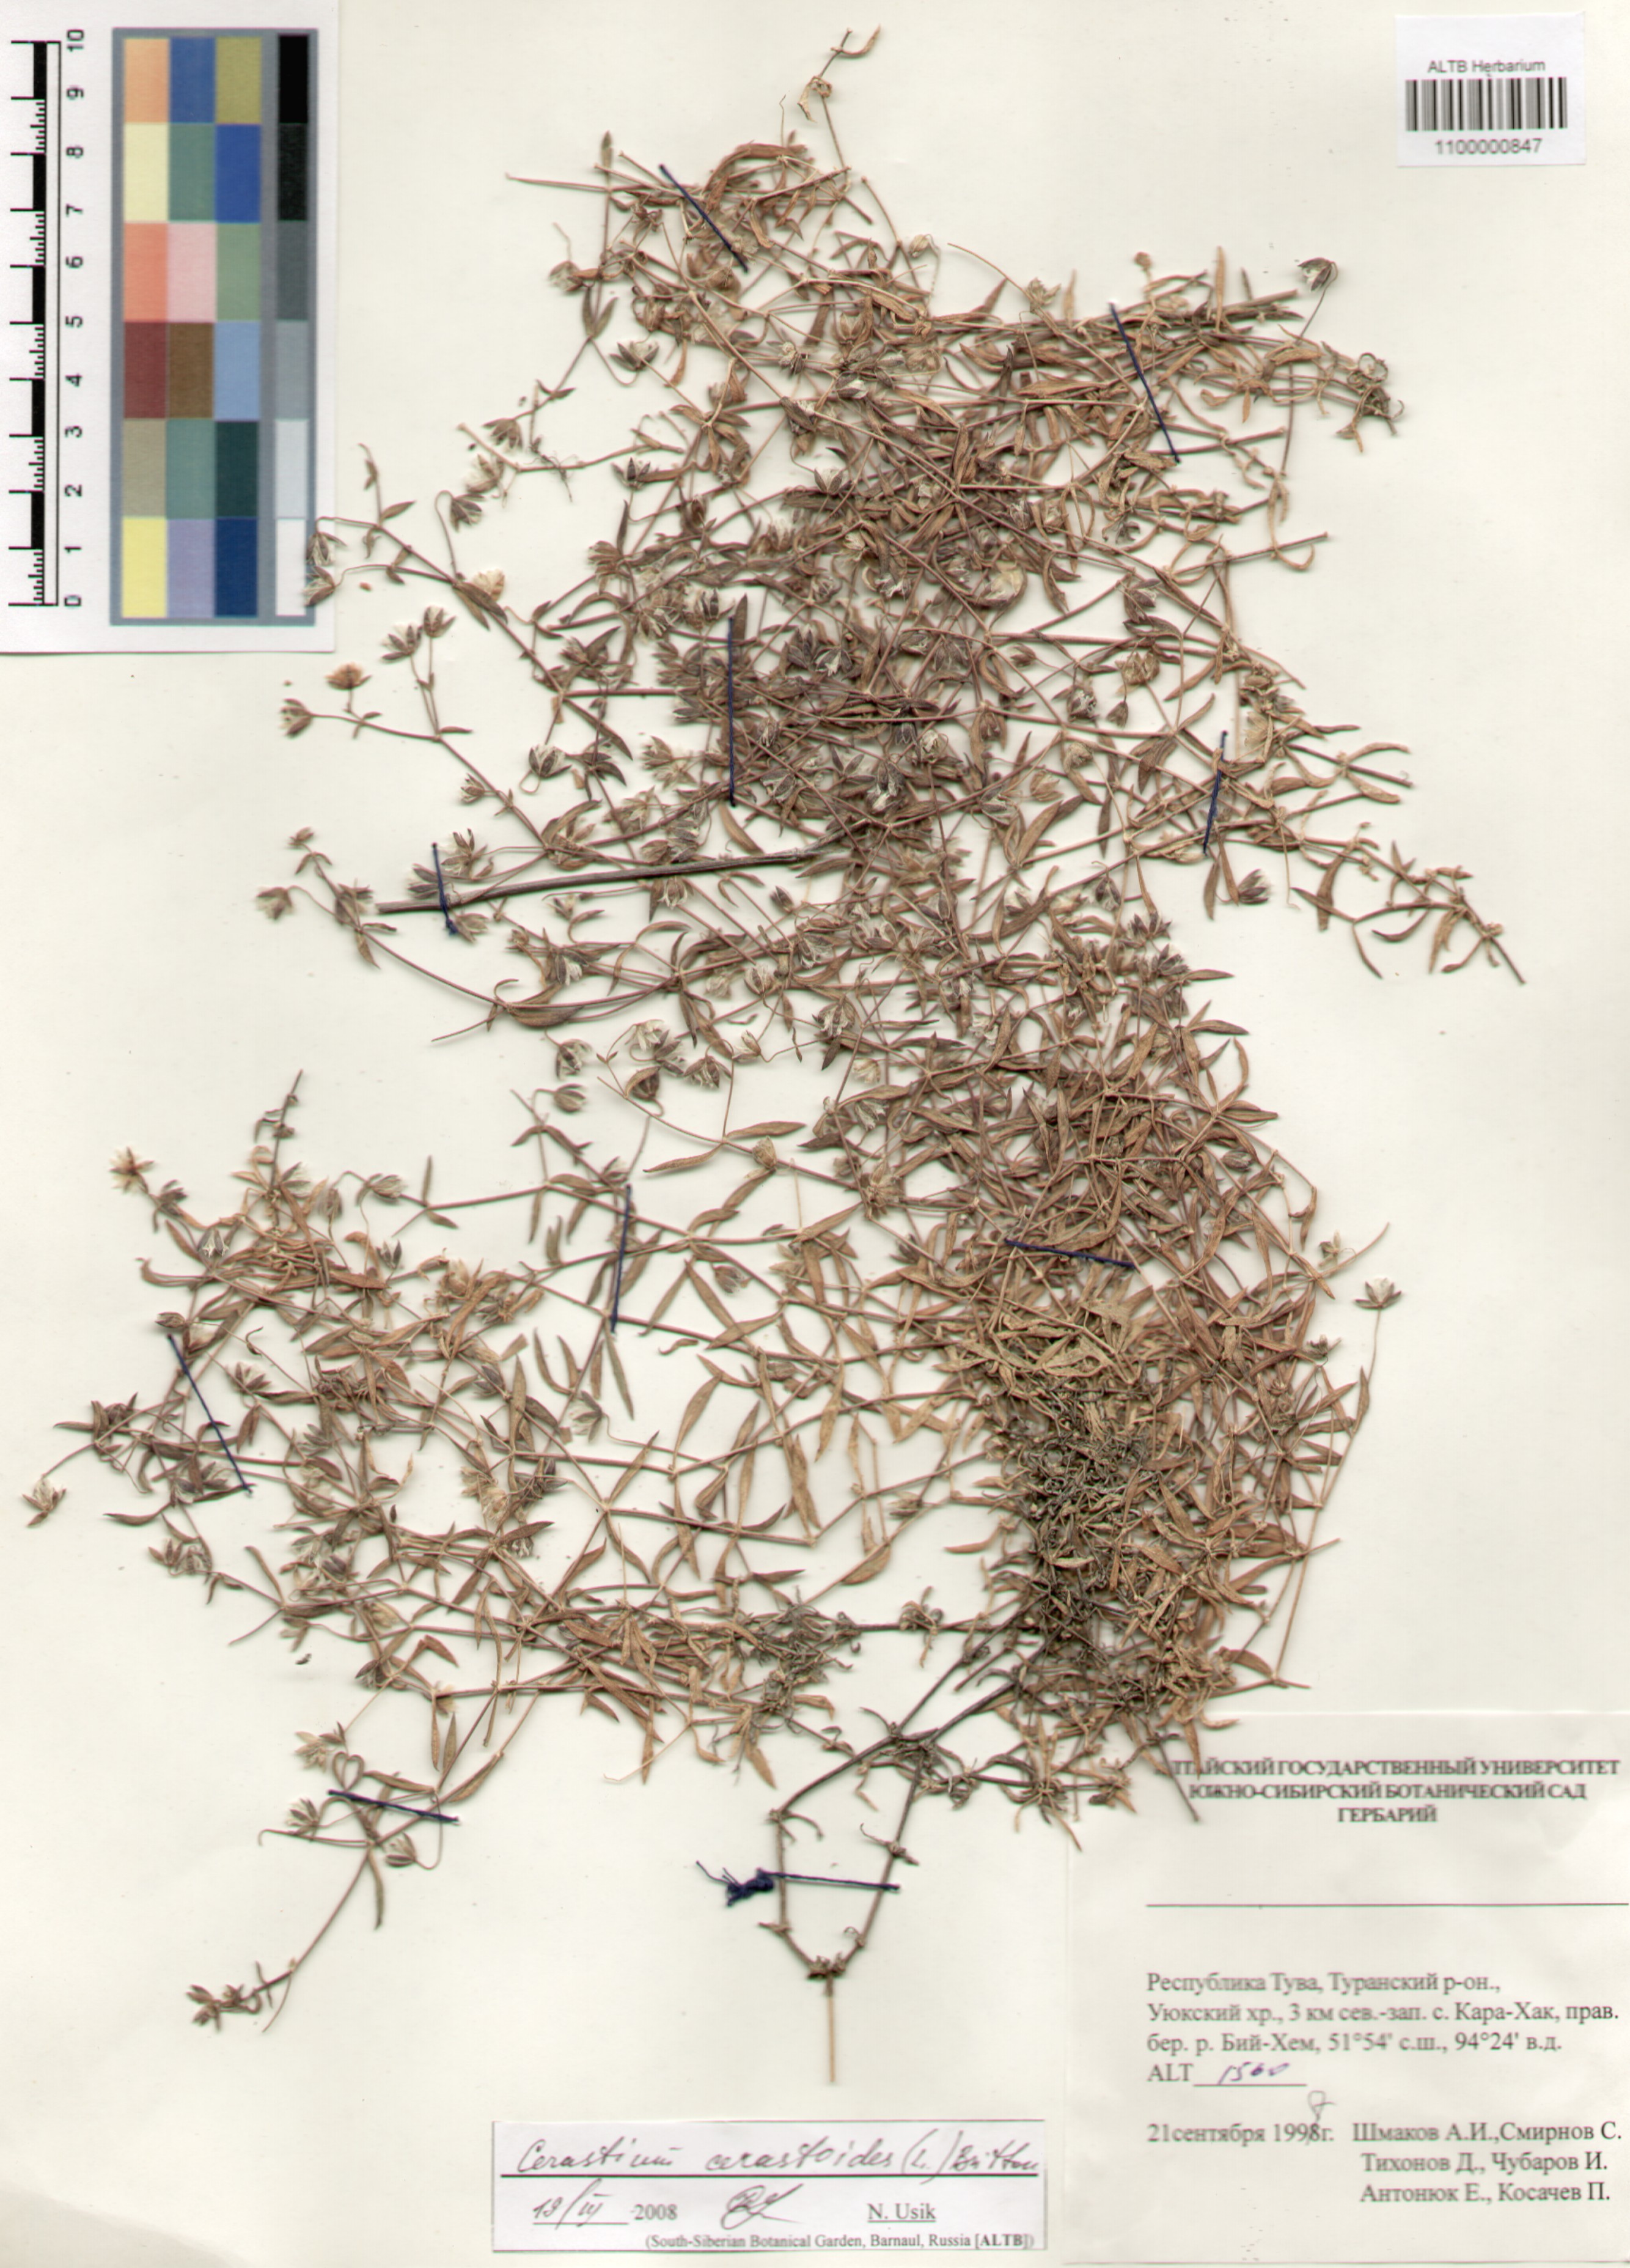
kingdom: Plantae
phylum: Tracheophyta
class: Magnoliopsida
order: Caryophyllales
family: Caryophyllaceae
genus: Dichodon
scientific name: Dichodon cerastoides
